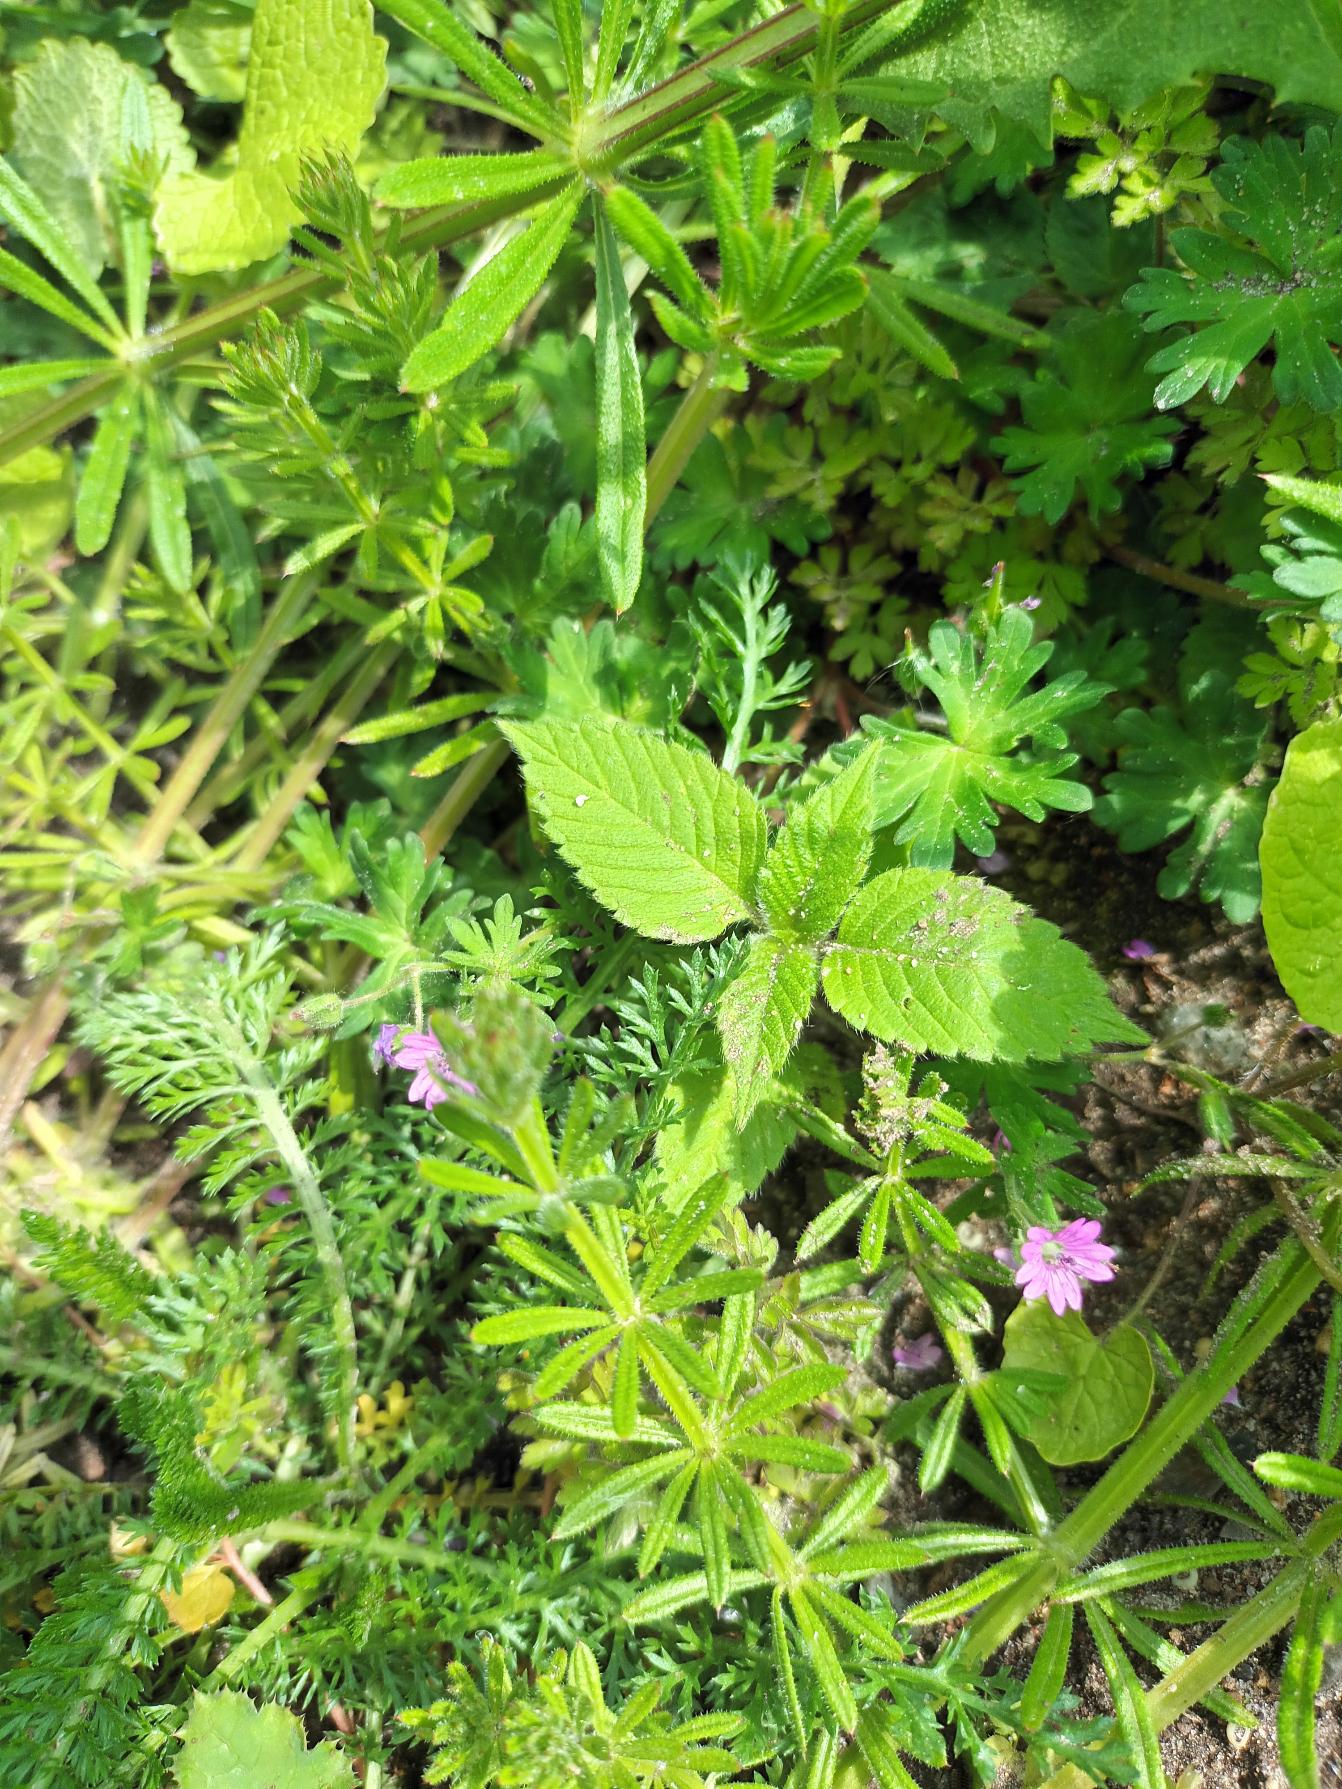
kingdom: Plantae
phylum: Tracheophyta
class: Magnoliopsida
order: Geraniales
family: Geraniaceae
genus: Geranium
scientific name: Geranium molle
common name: Blød storkenæb
